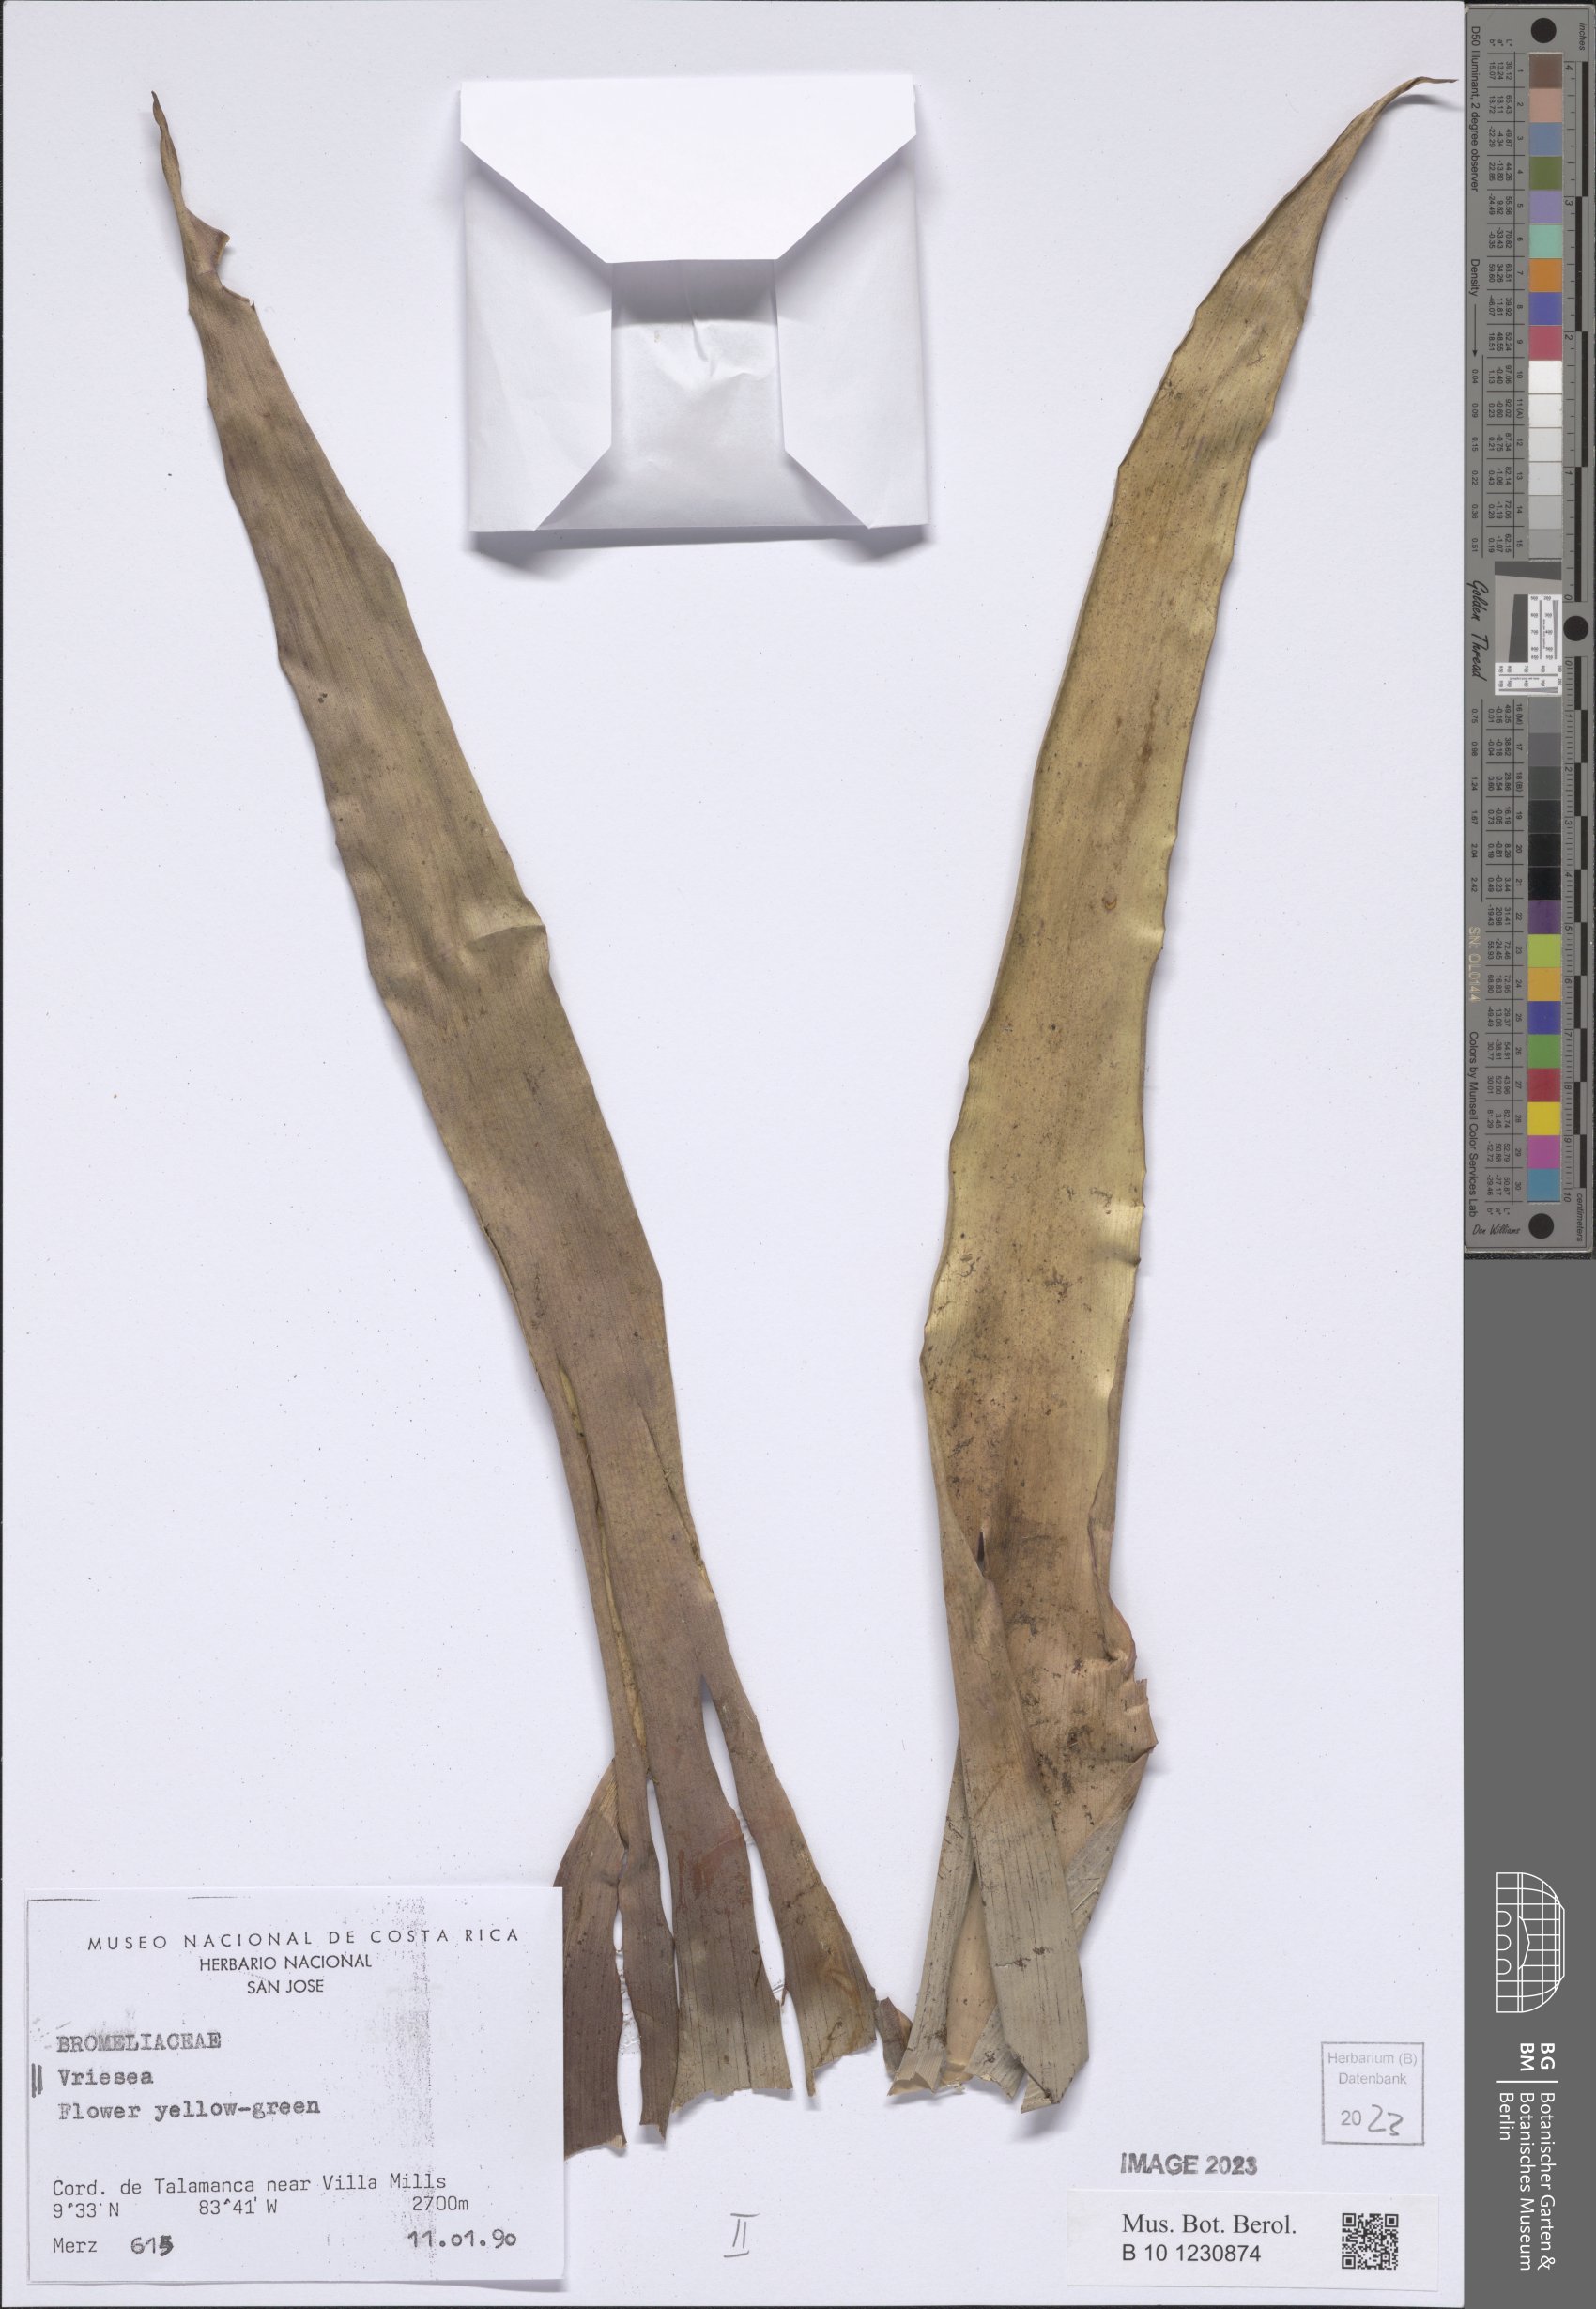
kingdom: Plantae
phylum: Tracheophyta
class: Liliopsida
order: Poales
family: Bromeliaceae
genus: Vriesea
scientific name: Vriesea
